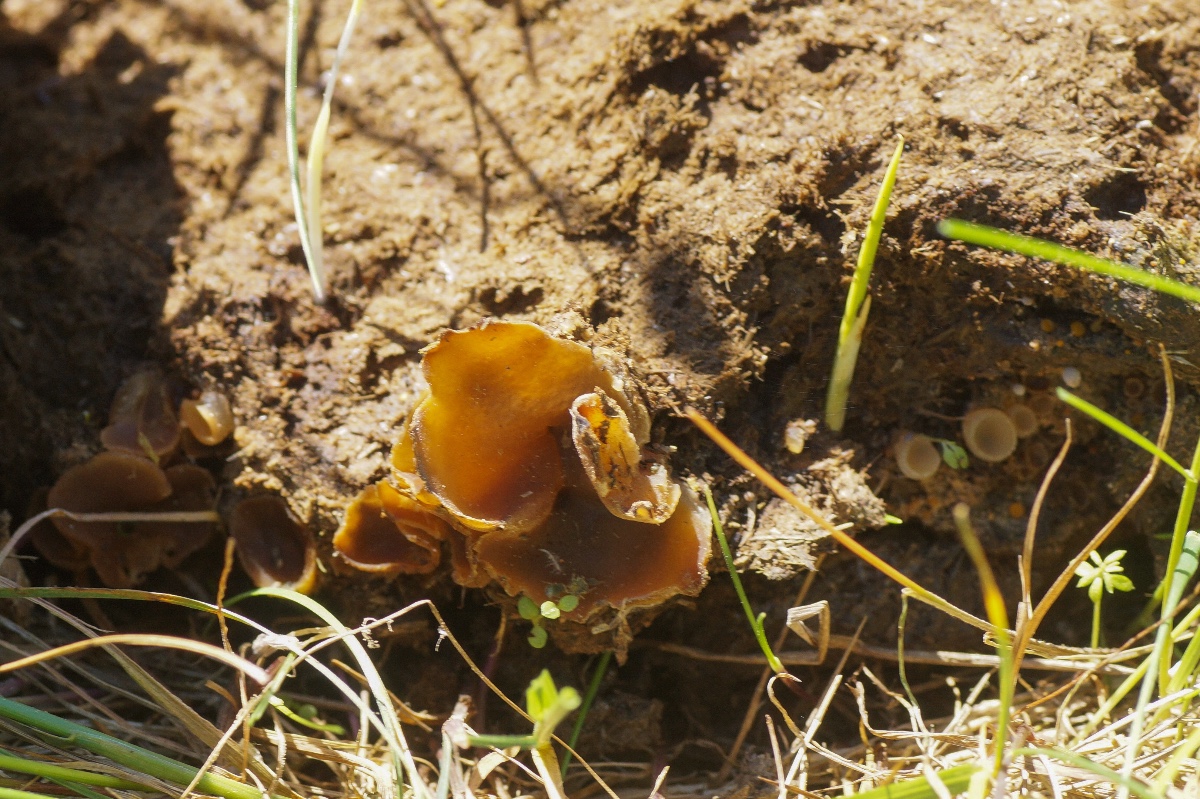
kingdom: Fungi
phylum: Ascomycota
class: Pezizomycetes
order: Pezizales
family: Pezizaceae
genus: Peziza
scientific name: Peziza fimeti
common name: møg-bægersvamp
